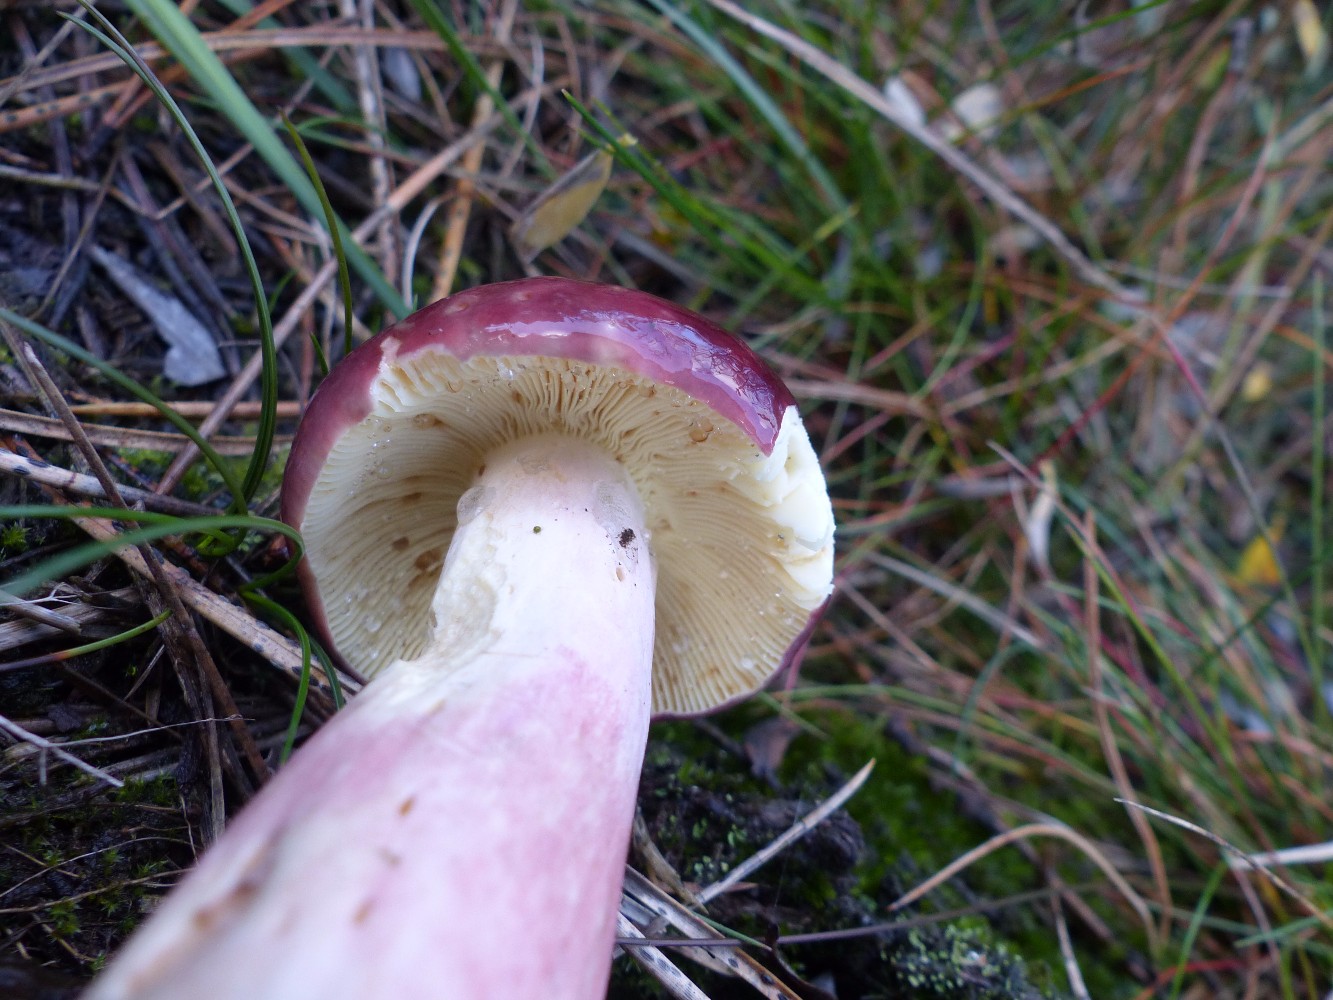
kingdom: Fungi
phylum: Basidiomycota
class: Agaricomycetes
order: Russulales
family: Russulaceae
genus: Russula
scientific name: Russula sardonia
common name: citronbladet skørhat
